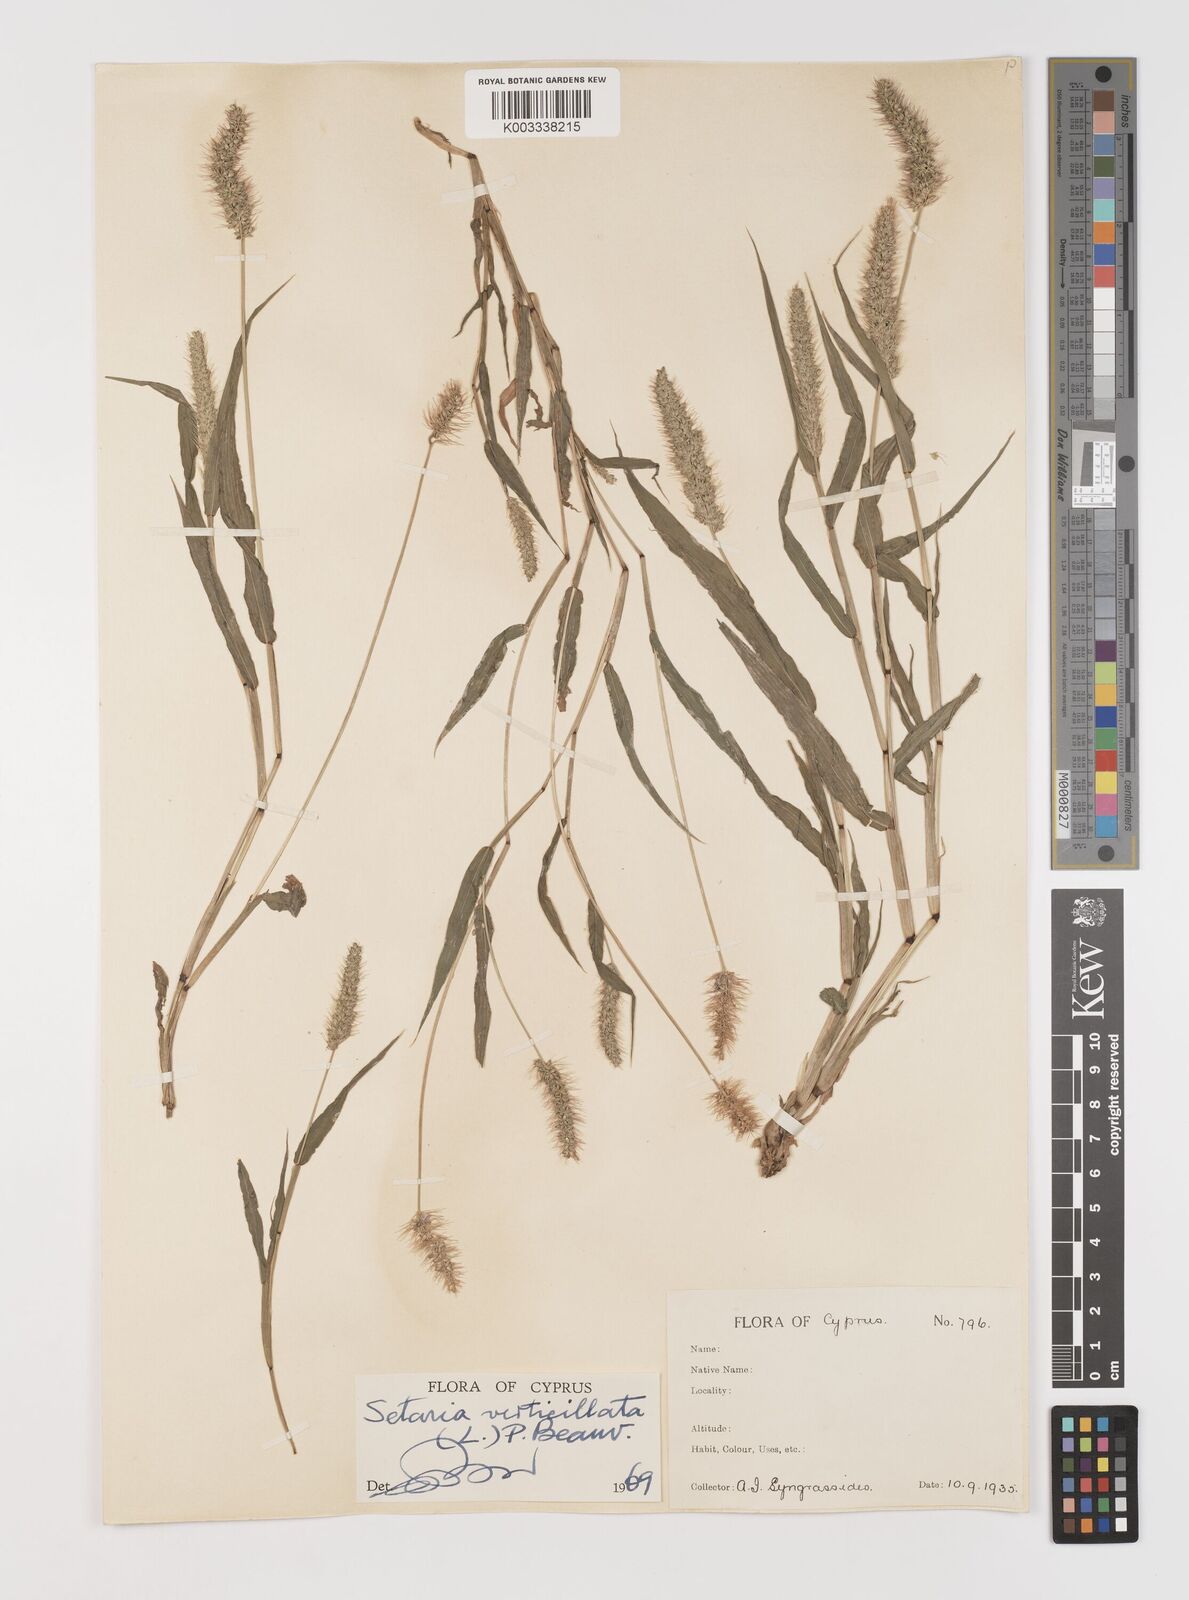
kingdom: Plantae
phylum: Tracheophyta
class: Liliopsida
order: Poales
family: Poaceae
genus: Setaria
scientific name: Setaria verticillata
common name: Hooked bristlegrass
